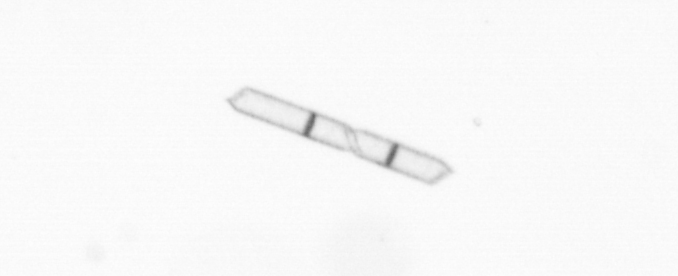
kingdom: Chromista
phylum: Ochrophyta
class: Bacillariophyceae
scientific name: Bacillariophyceae
